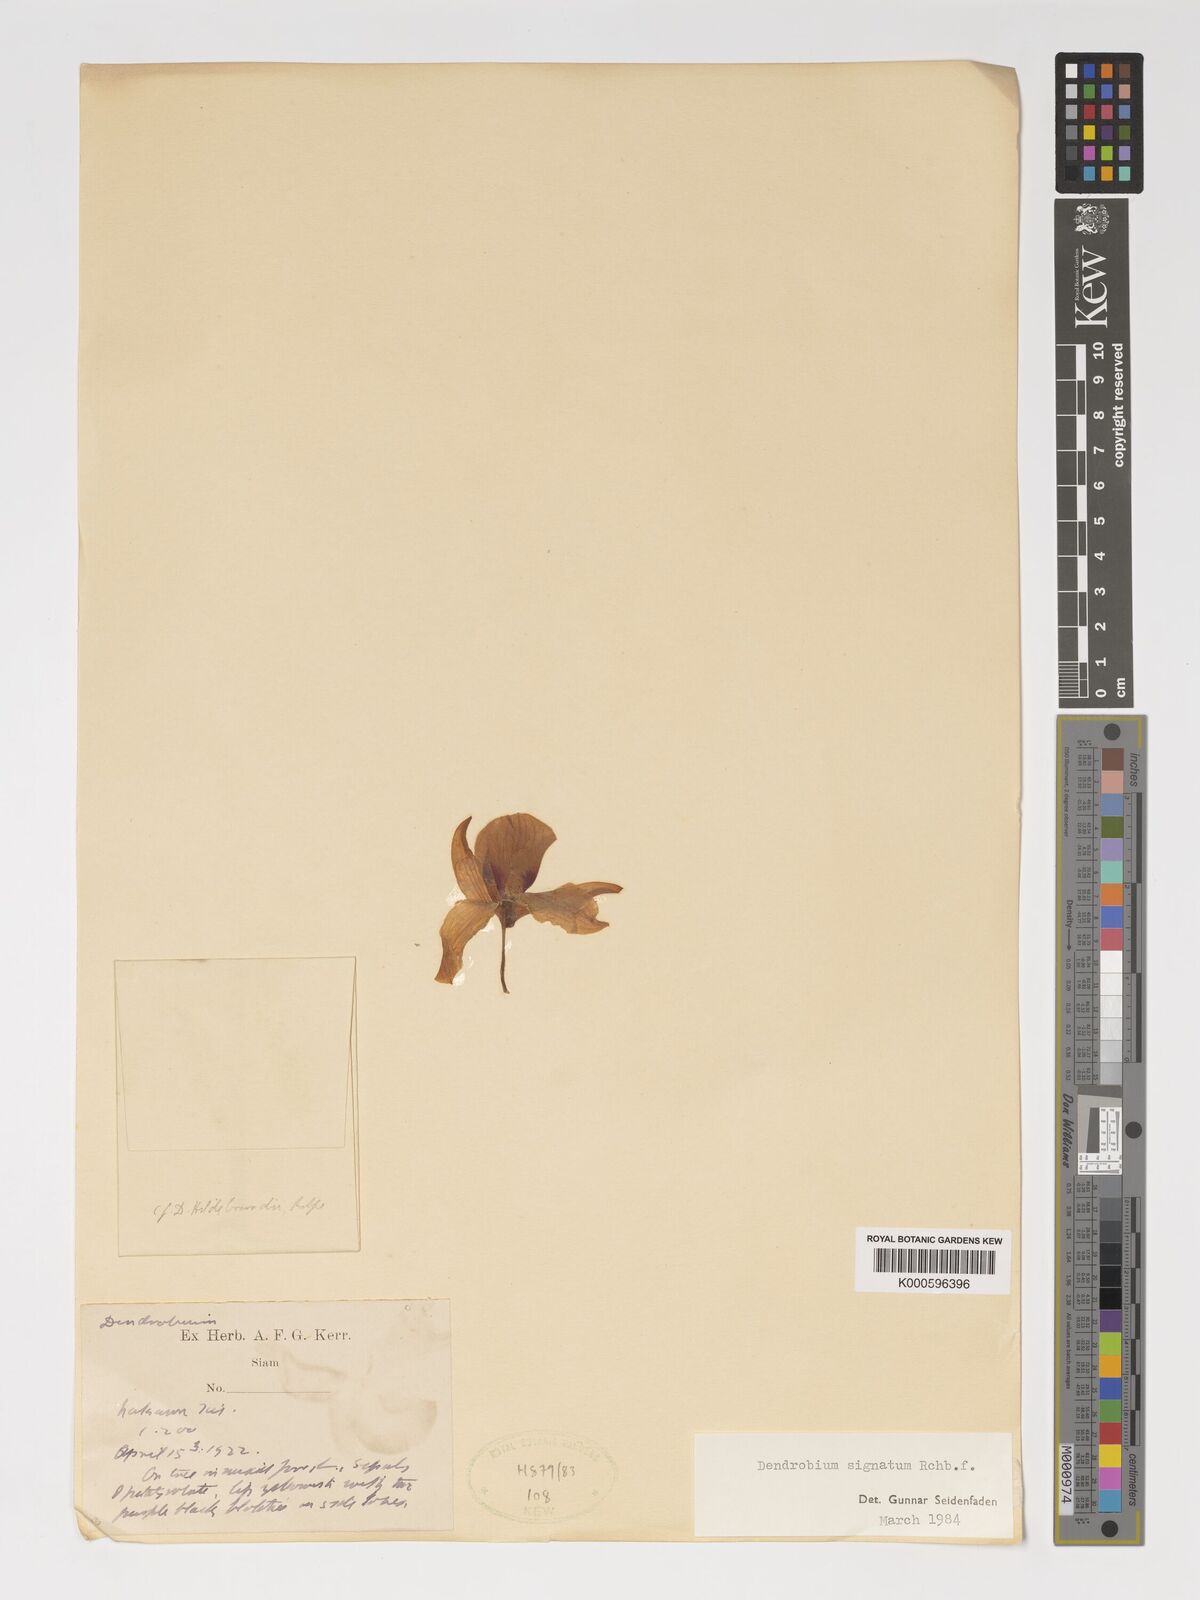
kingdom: Plantae
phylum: Tracheophyta
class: Liliopsida
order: Asparagales
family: Orchidaceae
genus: Dendrobium
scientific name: Dendrobium signatum
